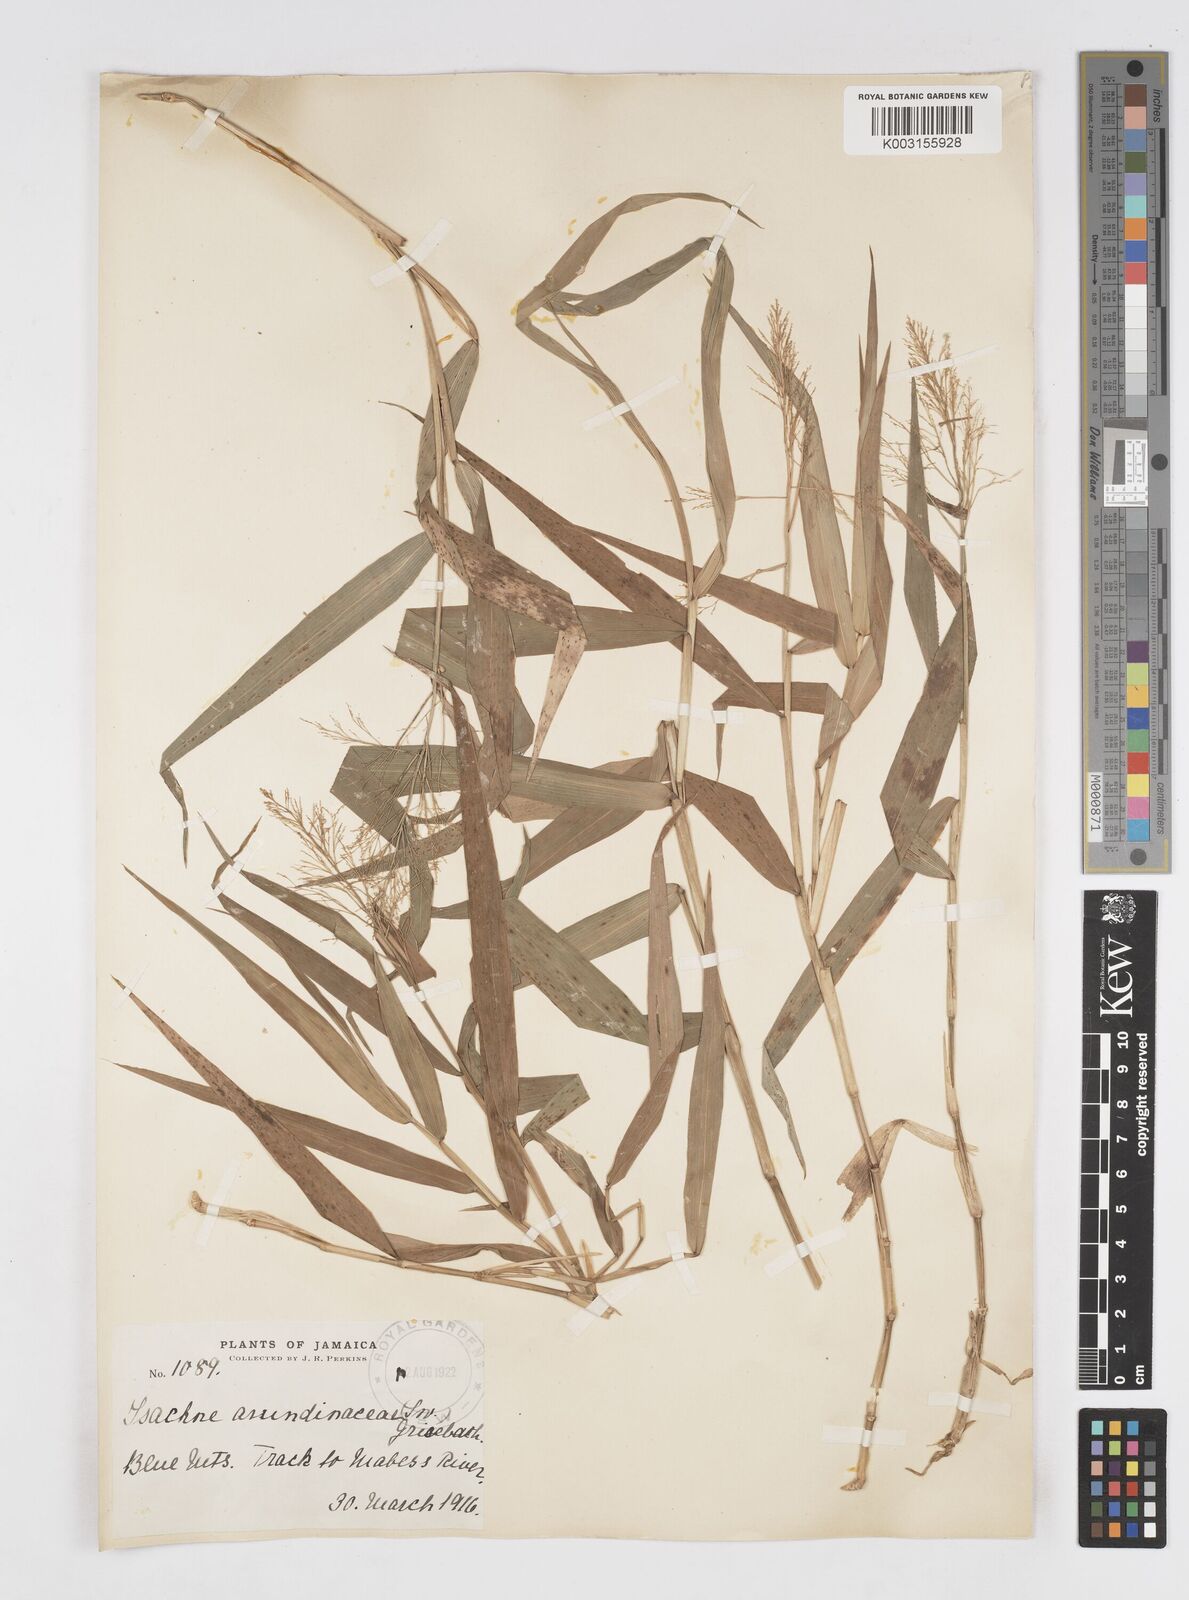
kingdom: Plantae
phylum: Tracheophyta
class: Liliopsida
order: Poales
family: Poaceae
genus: Isachne
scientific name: Isachne arundinacea
